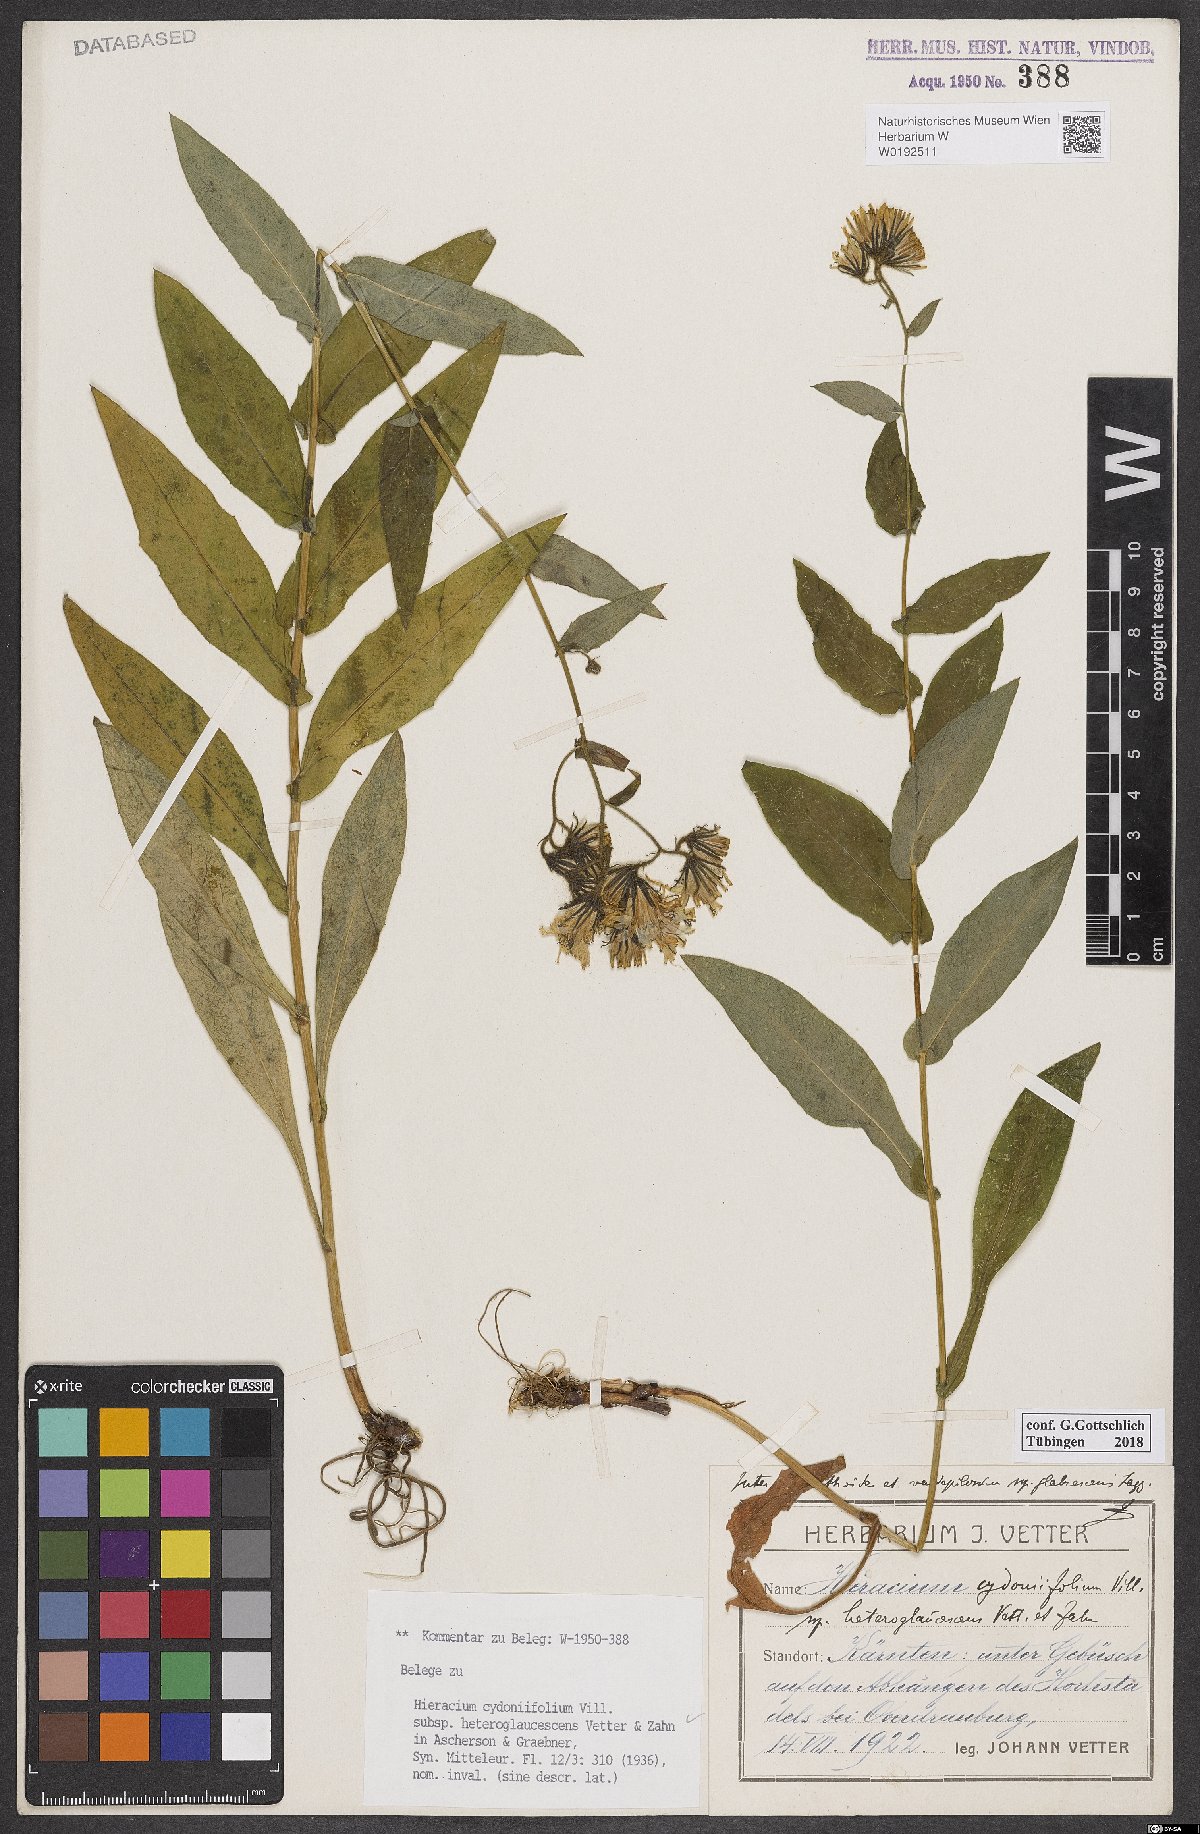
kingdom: Plantae
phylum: Tracheophyta
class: Magnoliopsida
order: Asterales
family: Asteraceae
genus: Hieracium
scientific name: Hieracium cydoniifolium
